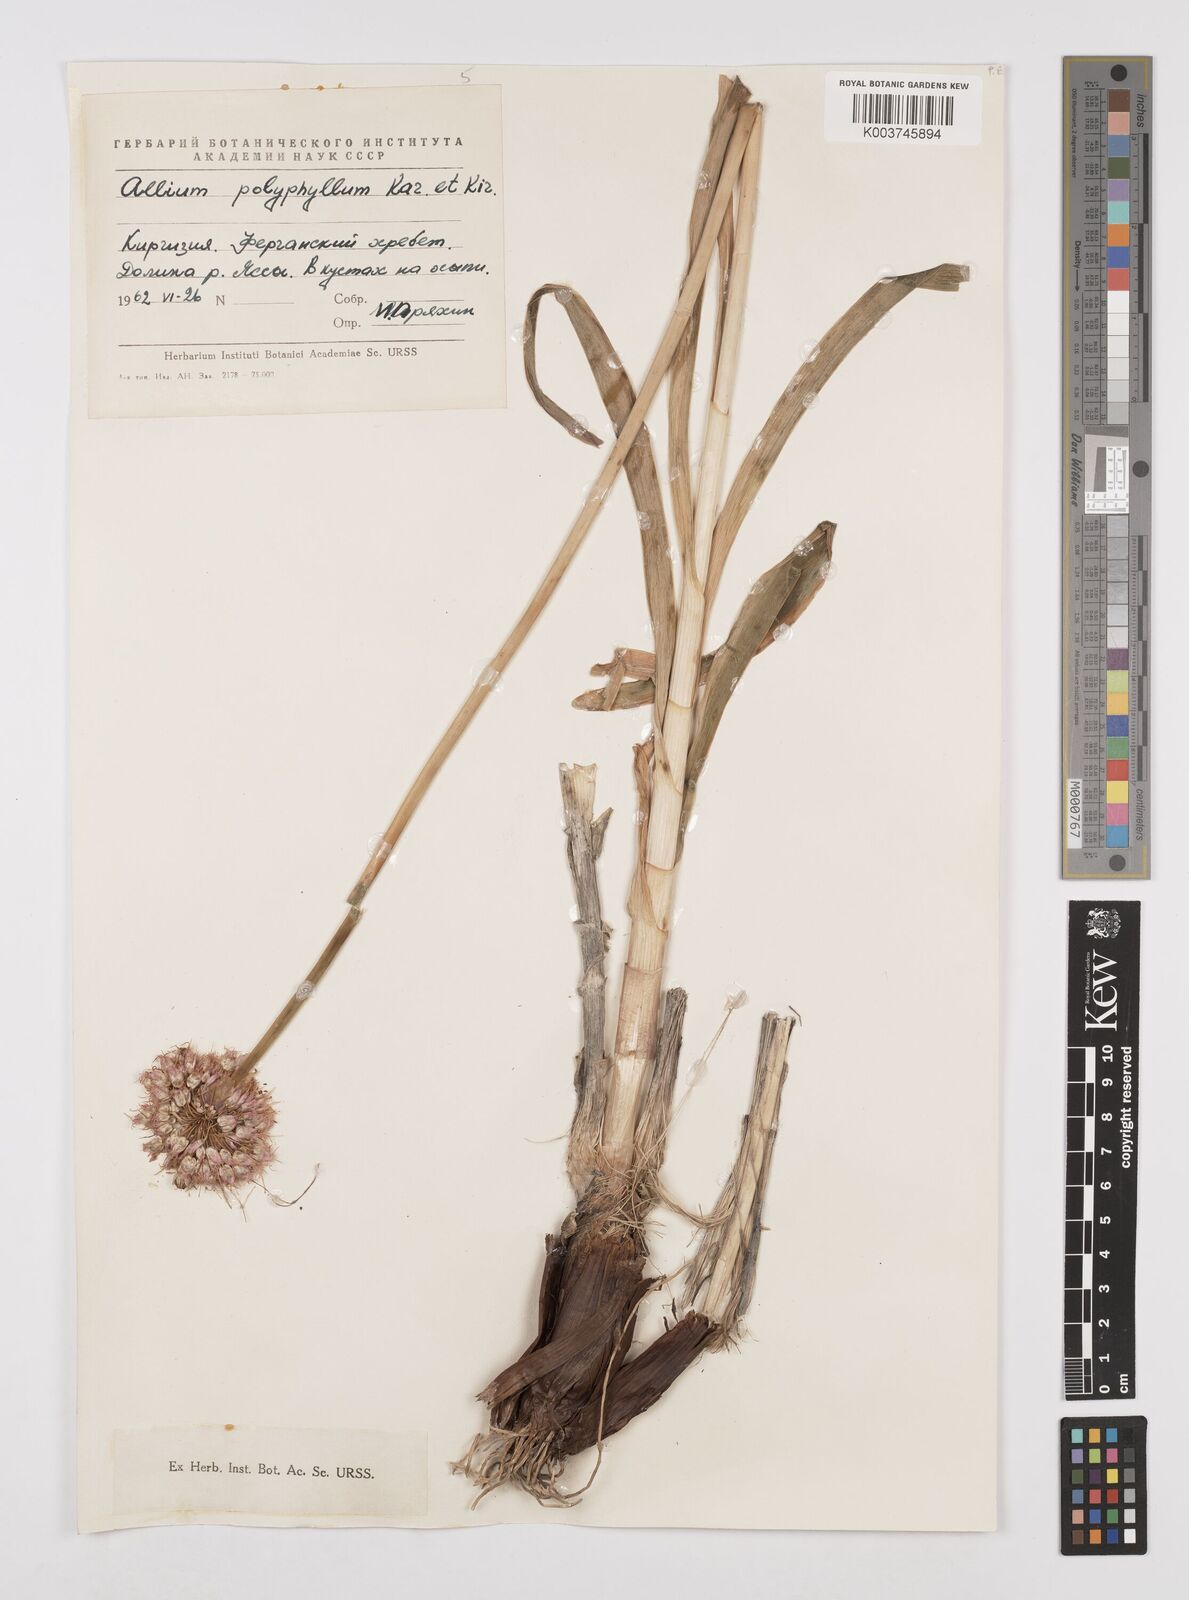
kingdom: Plantae
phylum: Tracheophyta
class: Liliopsida
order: Asparagales
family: Amaryllidaceae
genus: Allium
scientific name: Allium carolinianum
